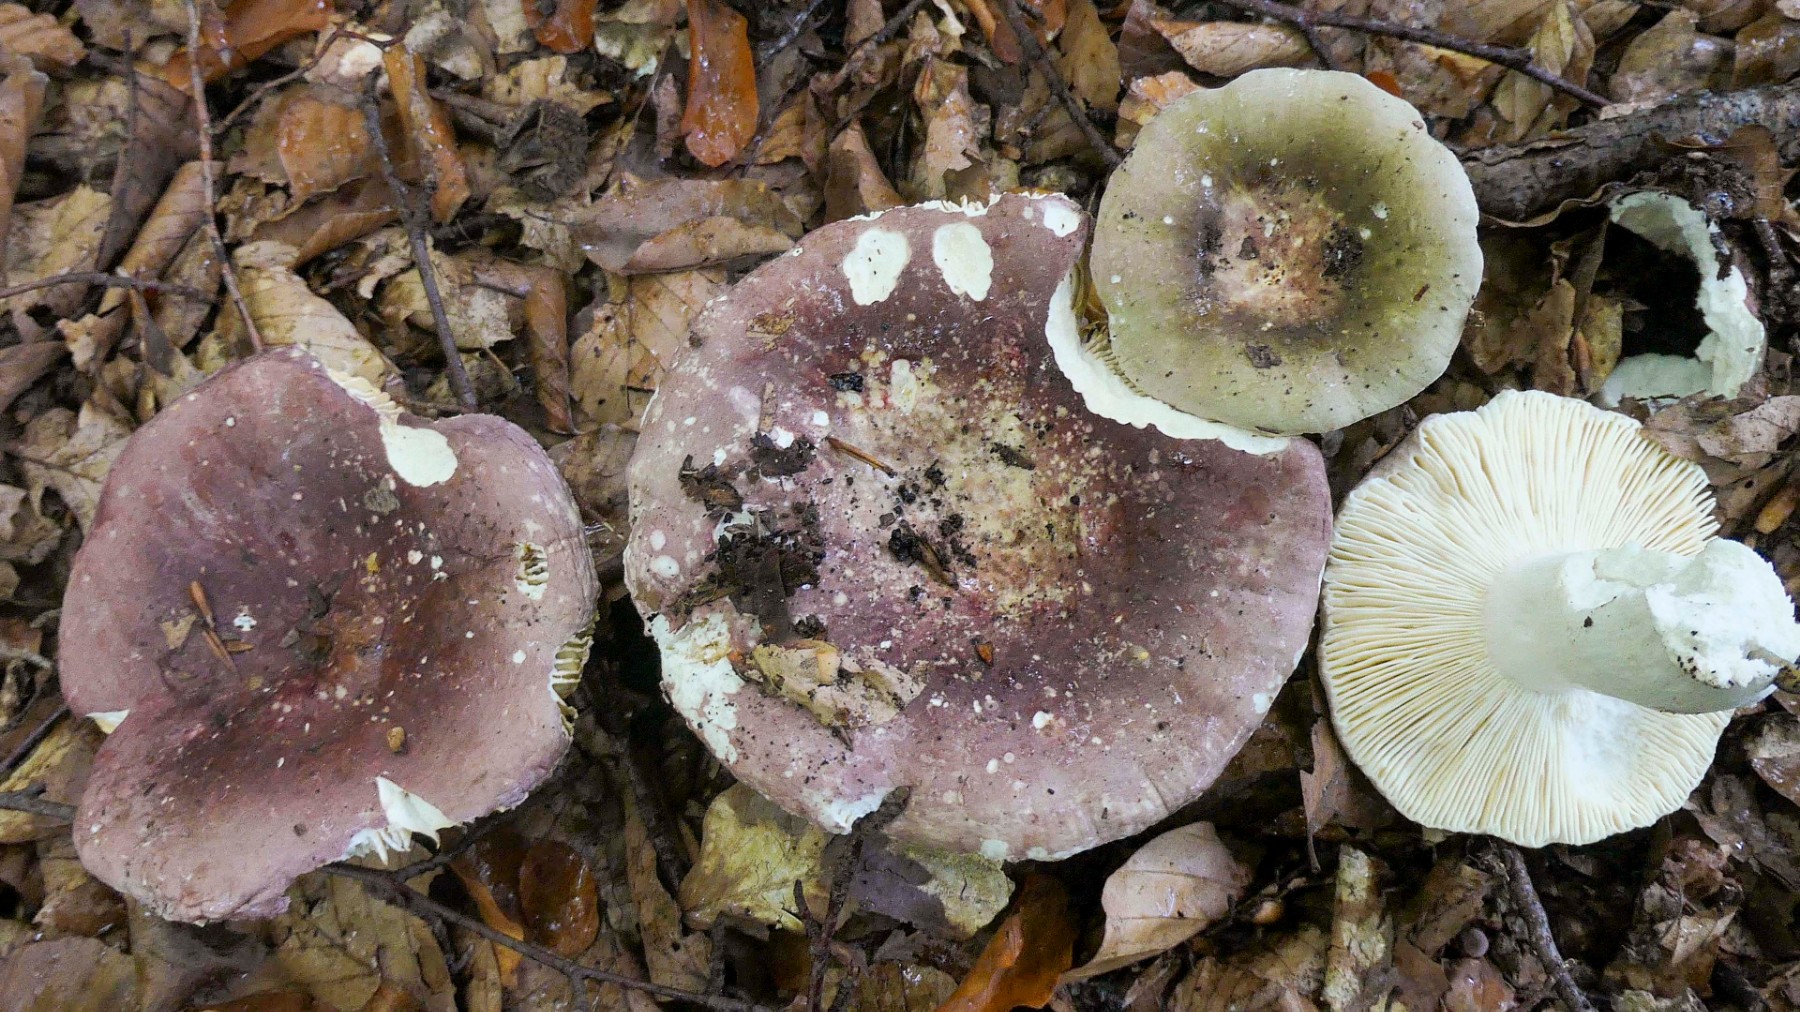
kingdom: Fungi
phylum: Basidiomycota
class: Agaricomycetes
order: Russulales
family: Russulaceae
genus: Russula
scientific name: Russula romellii
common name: romells skørhat
